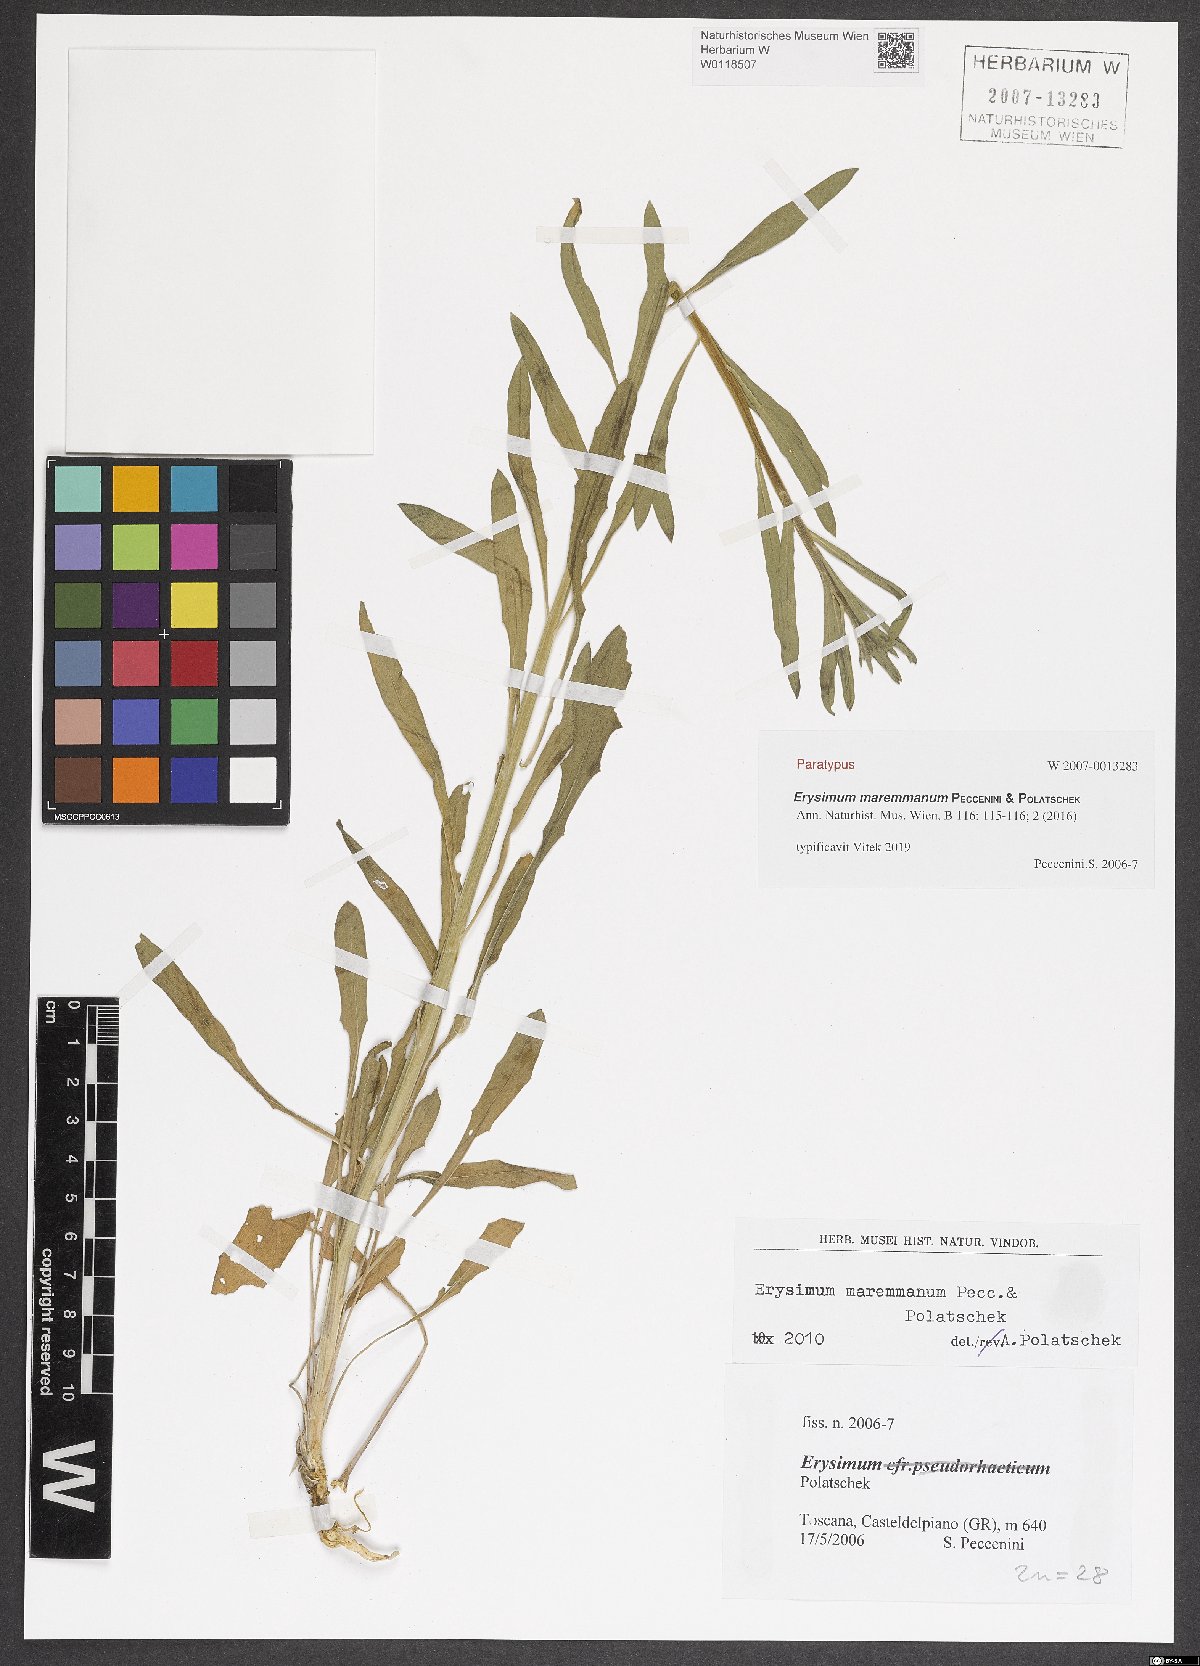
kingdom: Plantae
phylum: Tracheophyta
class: Magnoliopsida
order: Brassicales
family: Brassicaceae
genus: Erysimum
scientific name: Erysimum maremmanum
